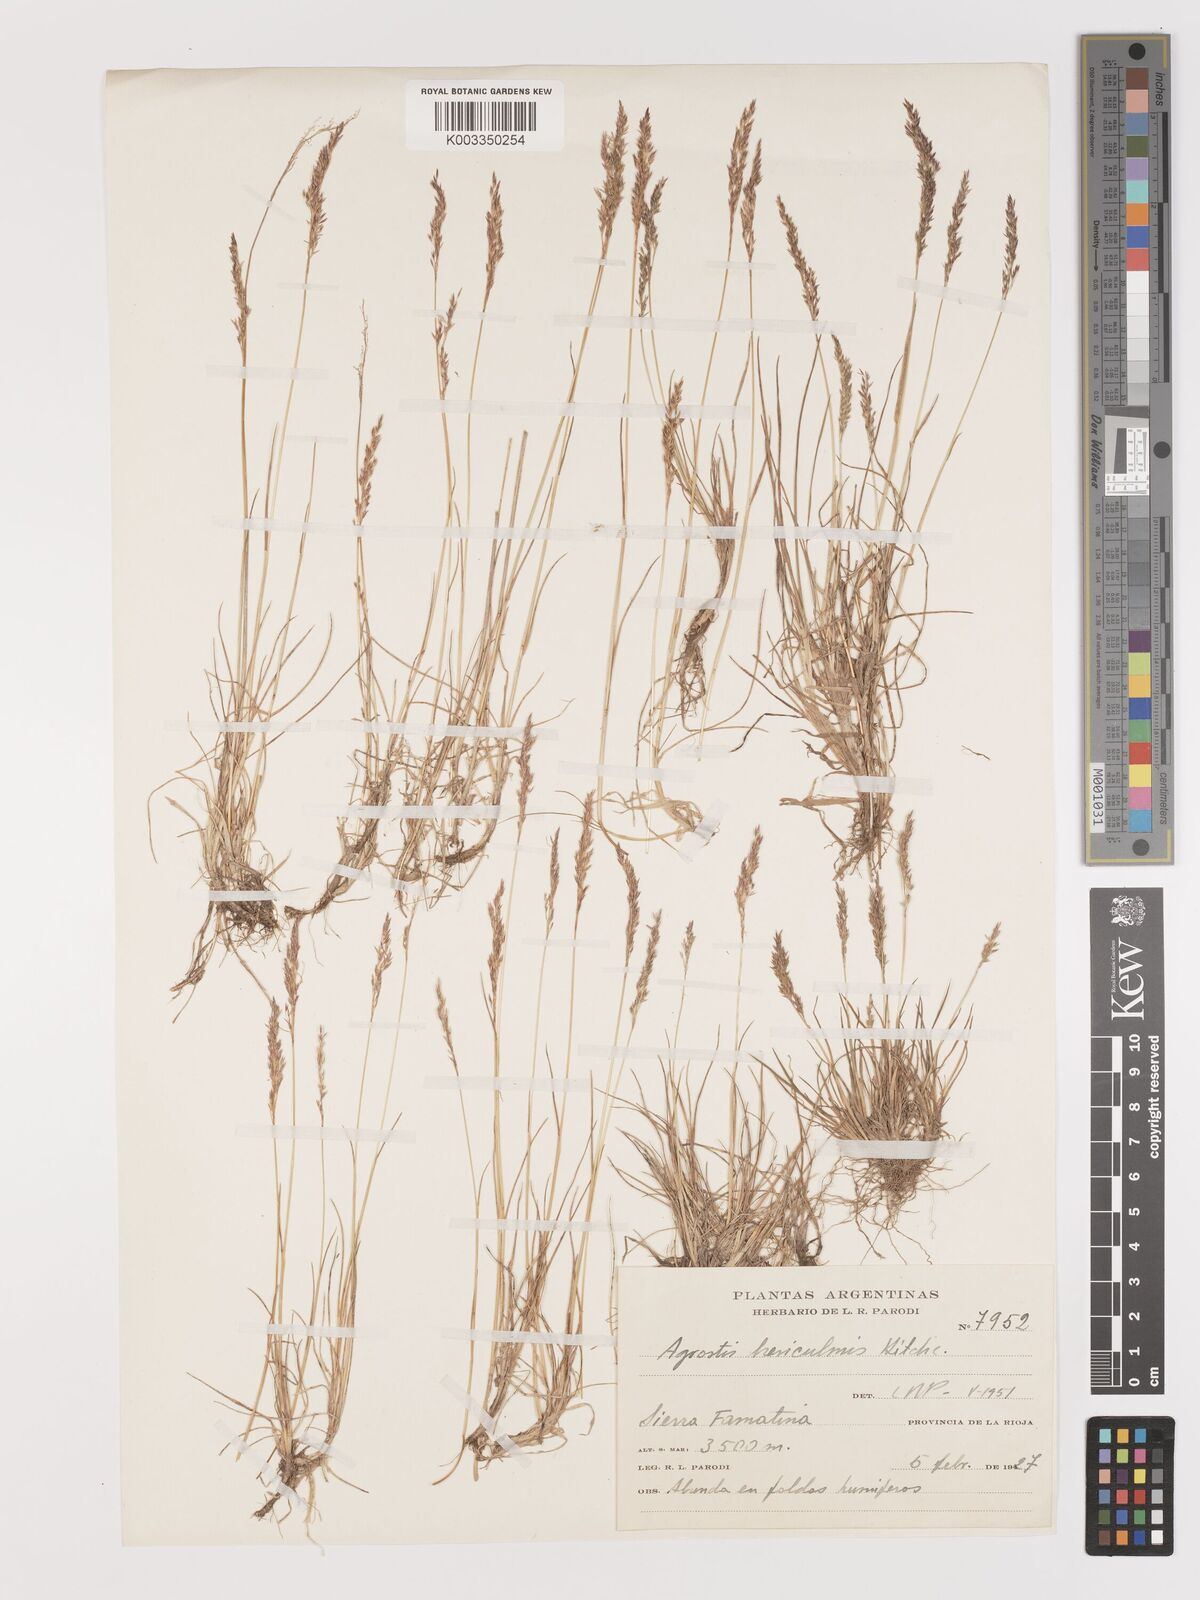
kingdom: Plantae
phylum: Tracheophyta
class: Liliopsida
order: Poales
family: Poaceae
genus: Agrostis
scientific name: Agrostis breviculmis
